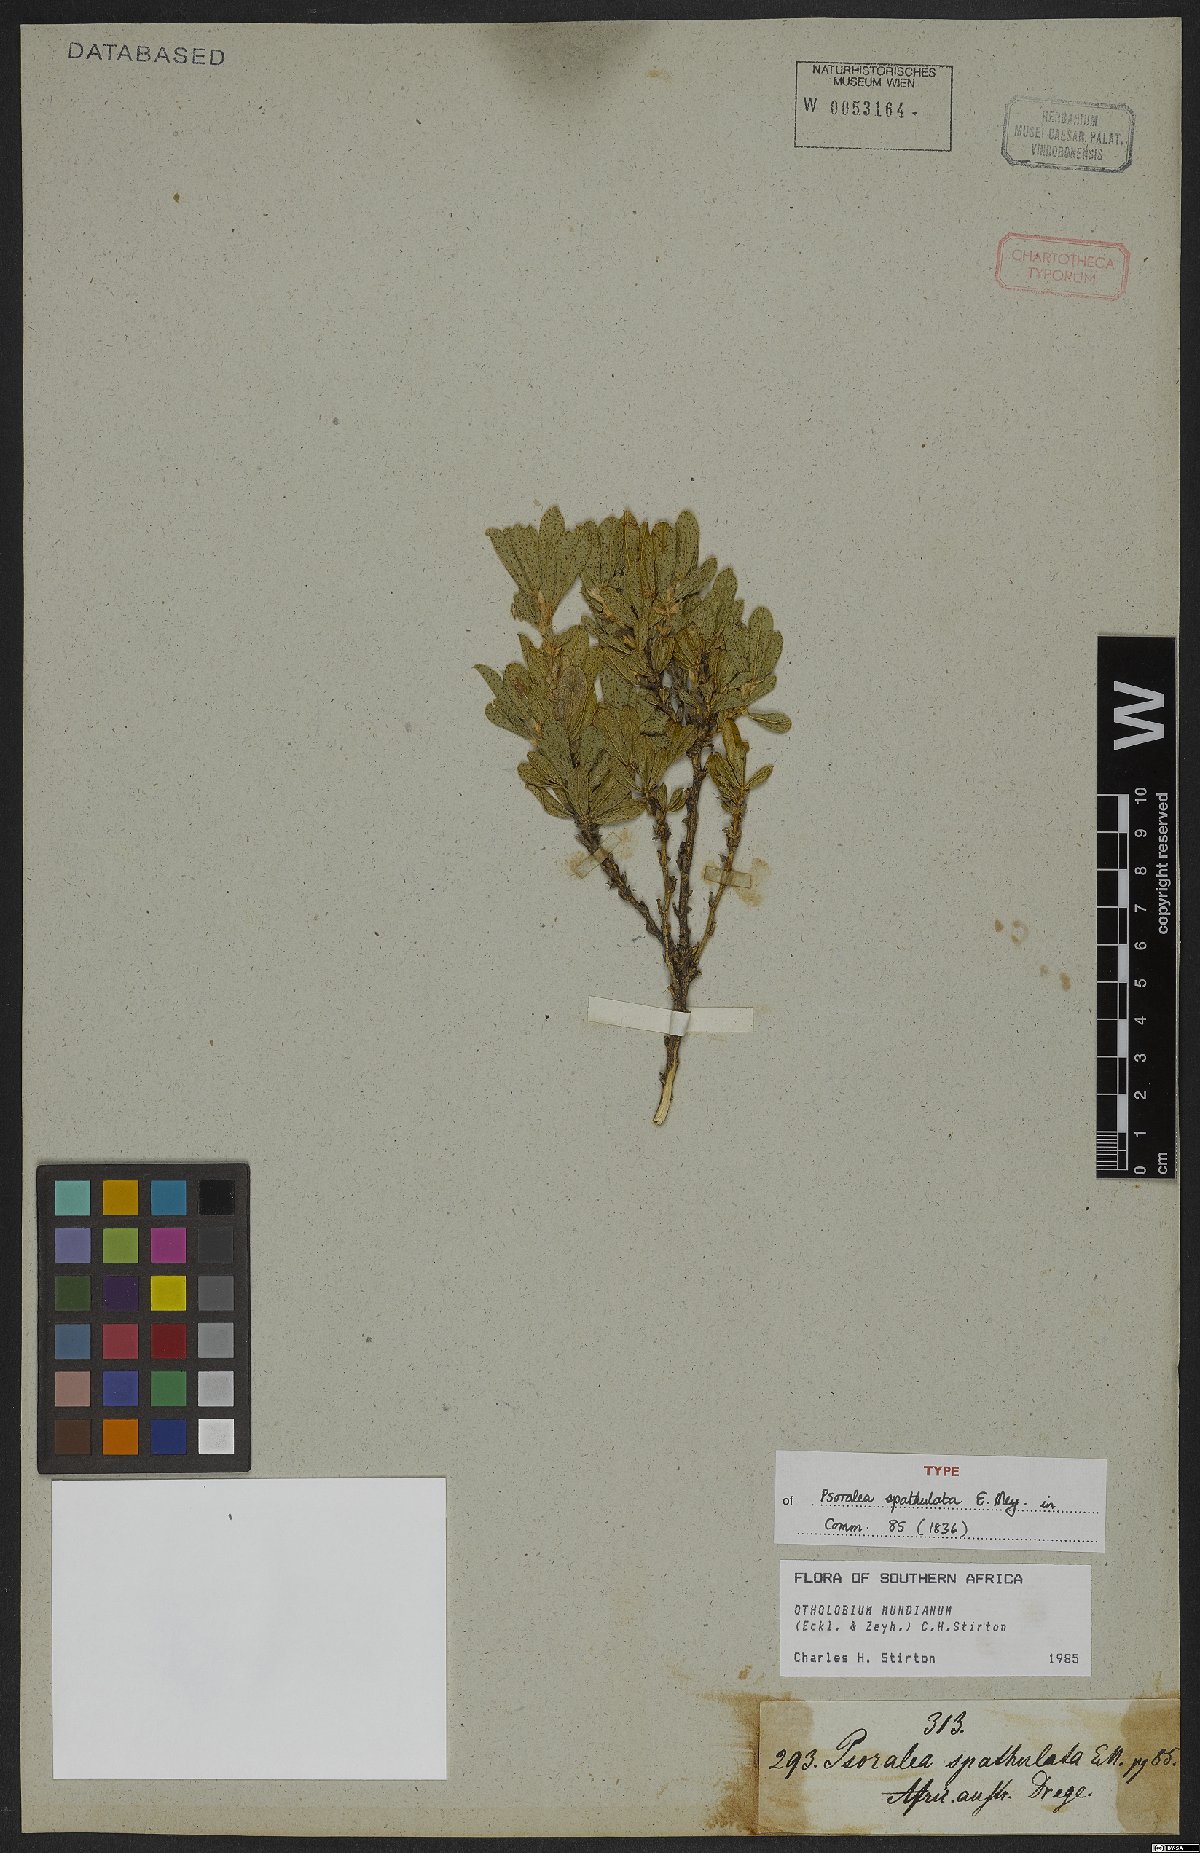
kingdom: Plantae
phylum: Tracheophyta
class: Magnoliopsida
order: Fabales
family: Fabaceae
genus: Psoralea
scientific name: Psoralea mundiana
